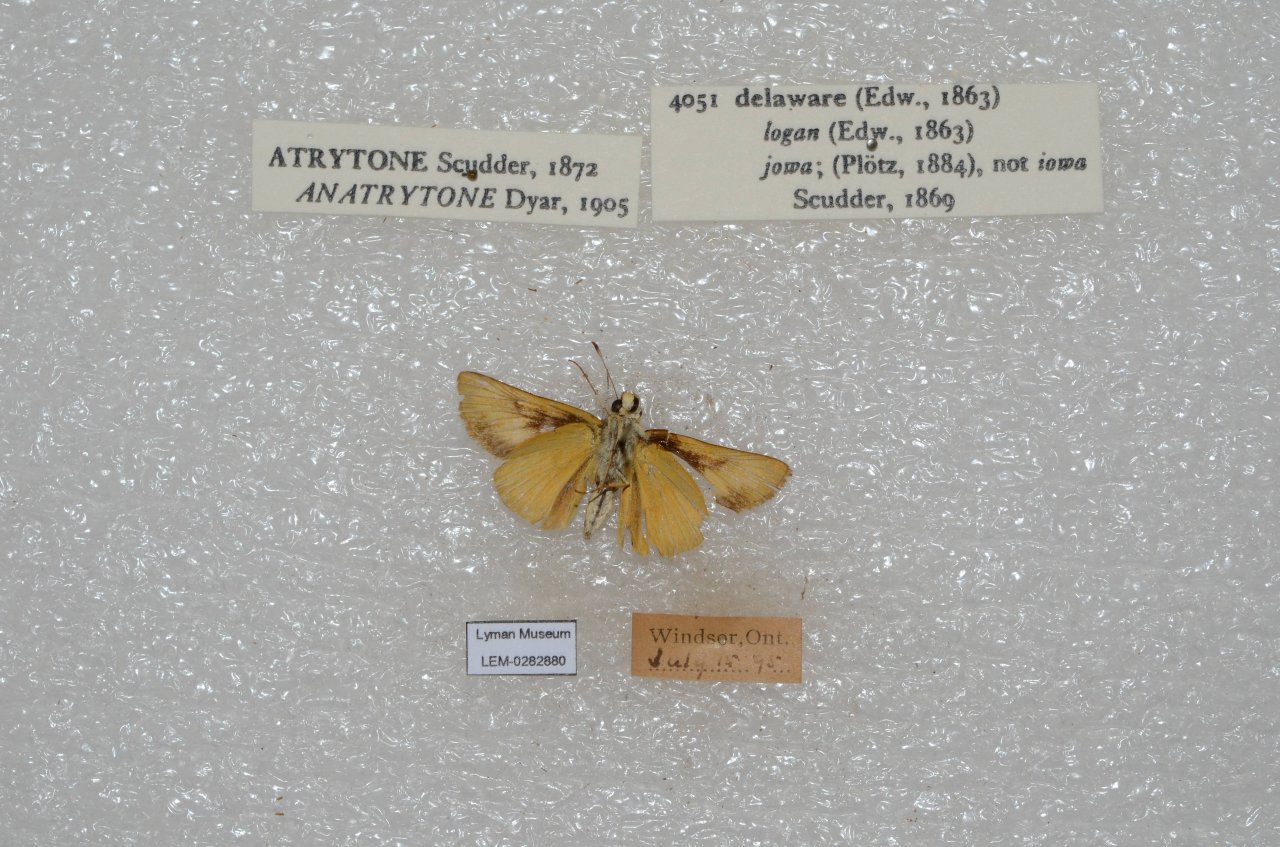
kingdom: Animalia
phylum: Arthropoda
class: Insecta
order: Lepidoptera
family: Hesperiidae
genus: Atrytone
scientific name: Atrytone delaware
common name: Delaware Skipper
